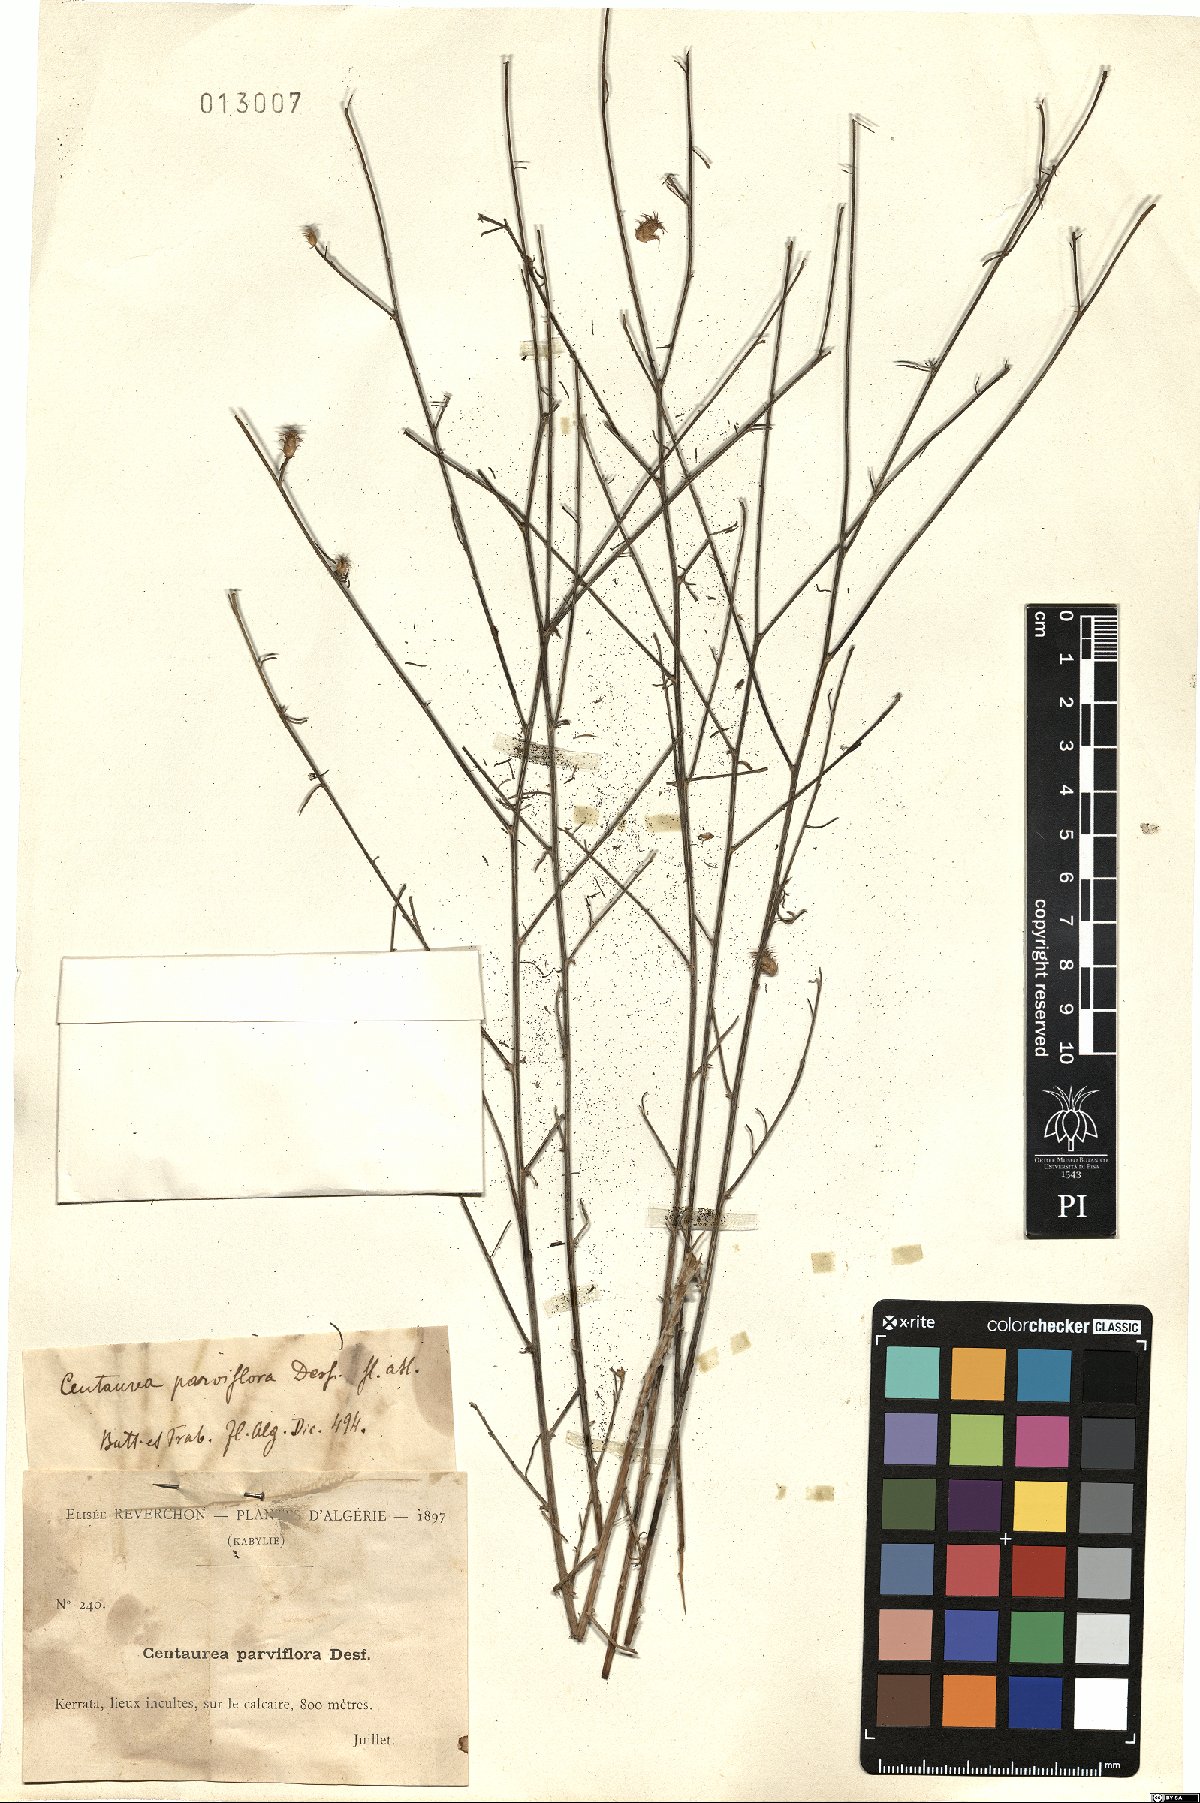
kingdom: Plantae
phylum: Tracheophyta
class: Magnoliopsida
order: Asterales
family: Asteraceae
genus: Centaurea
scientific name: Centaurea parviflora
